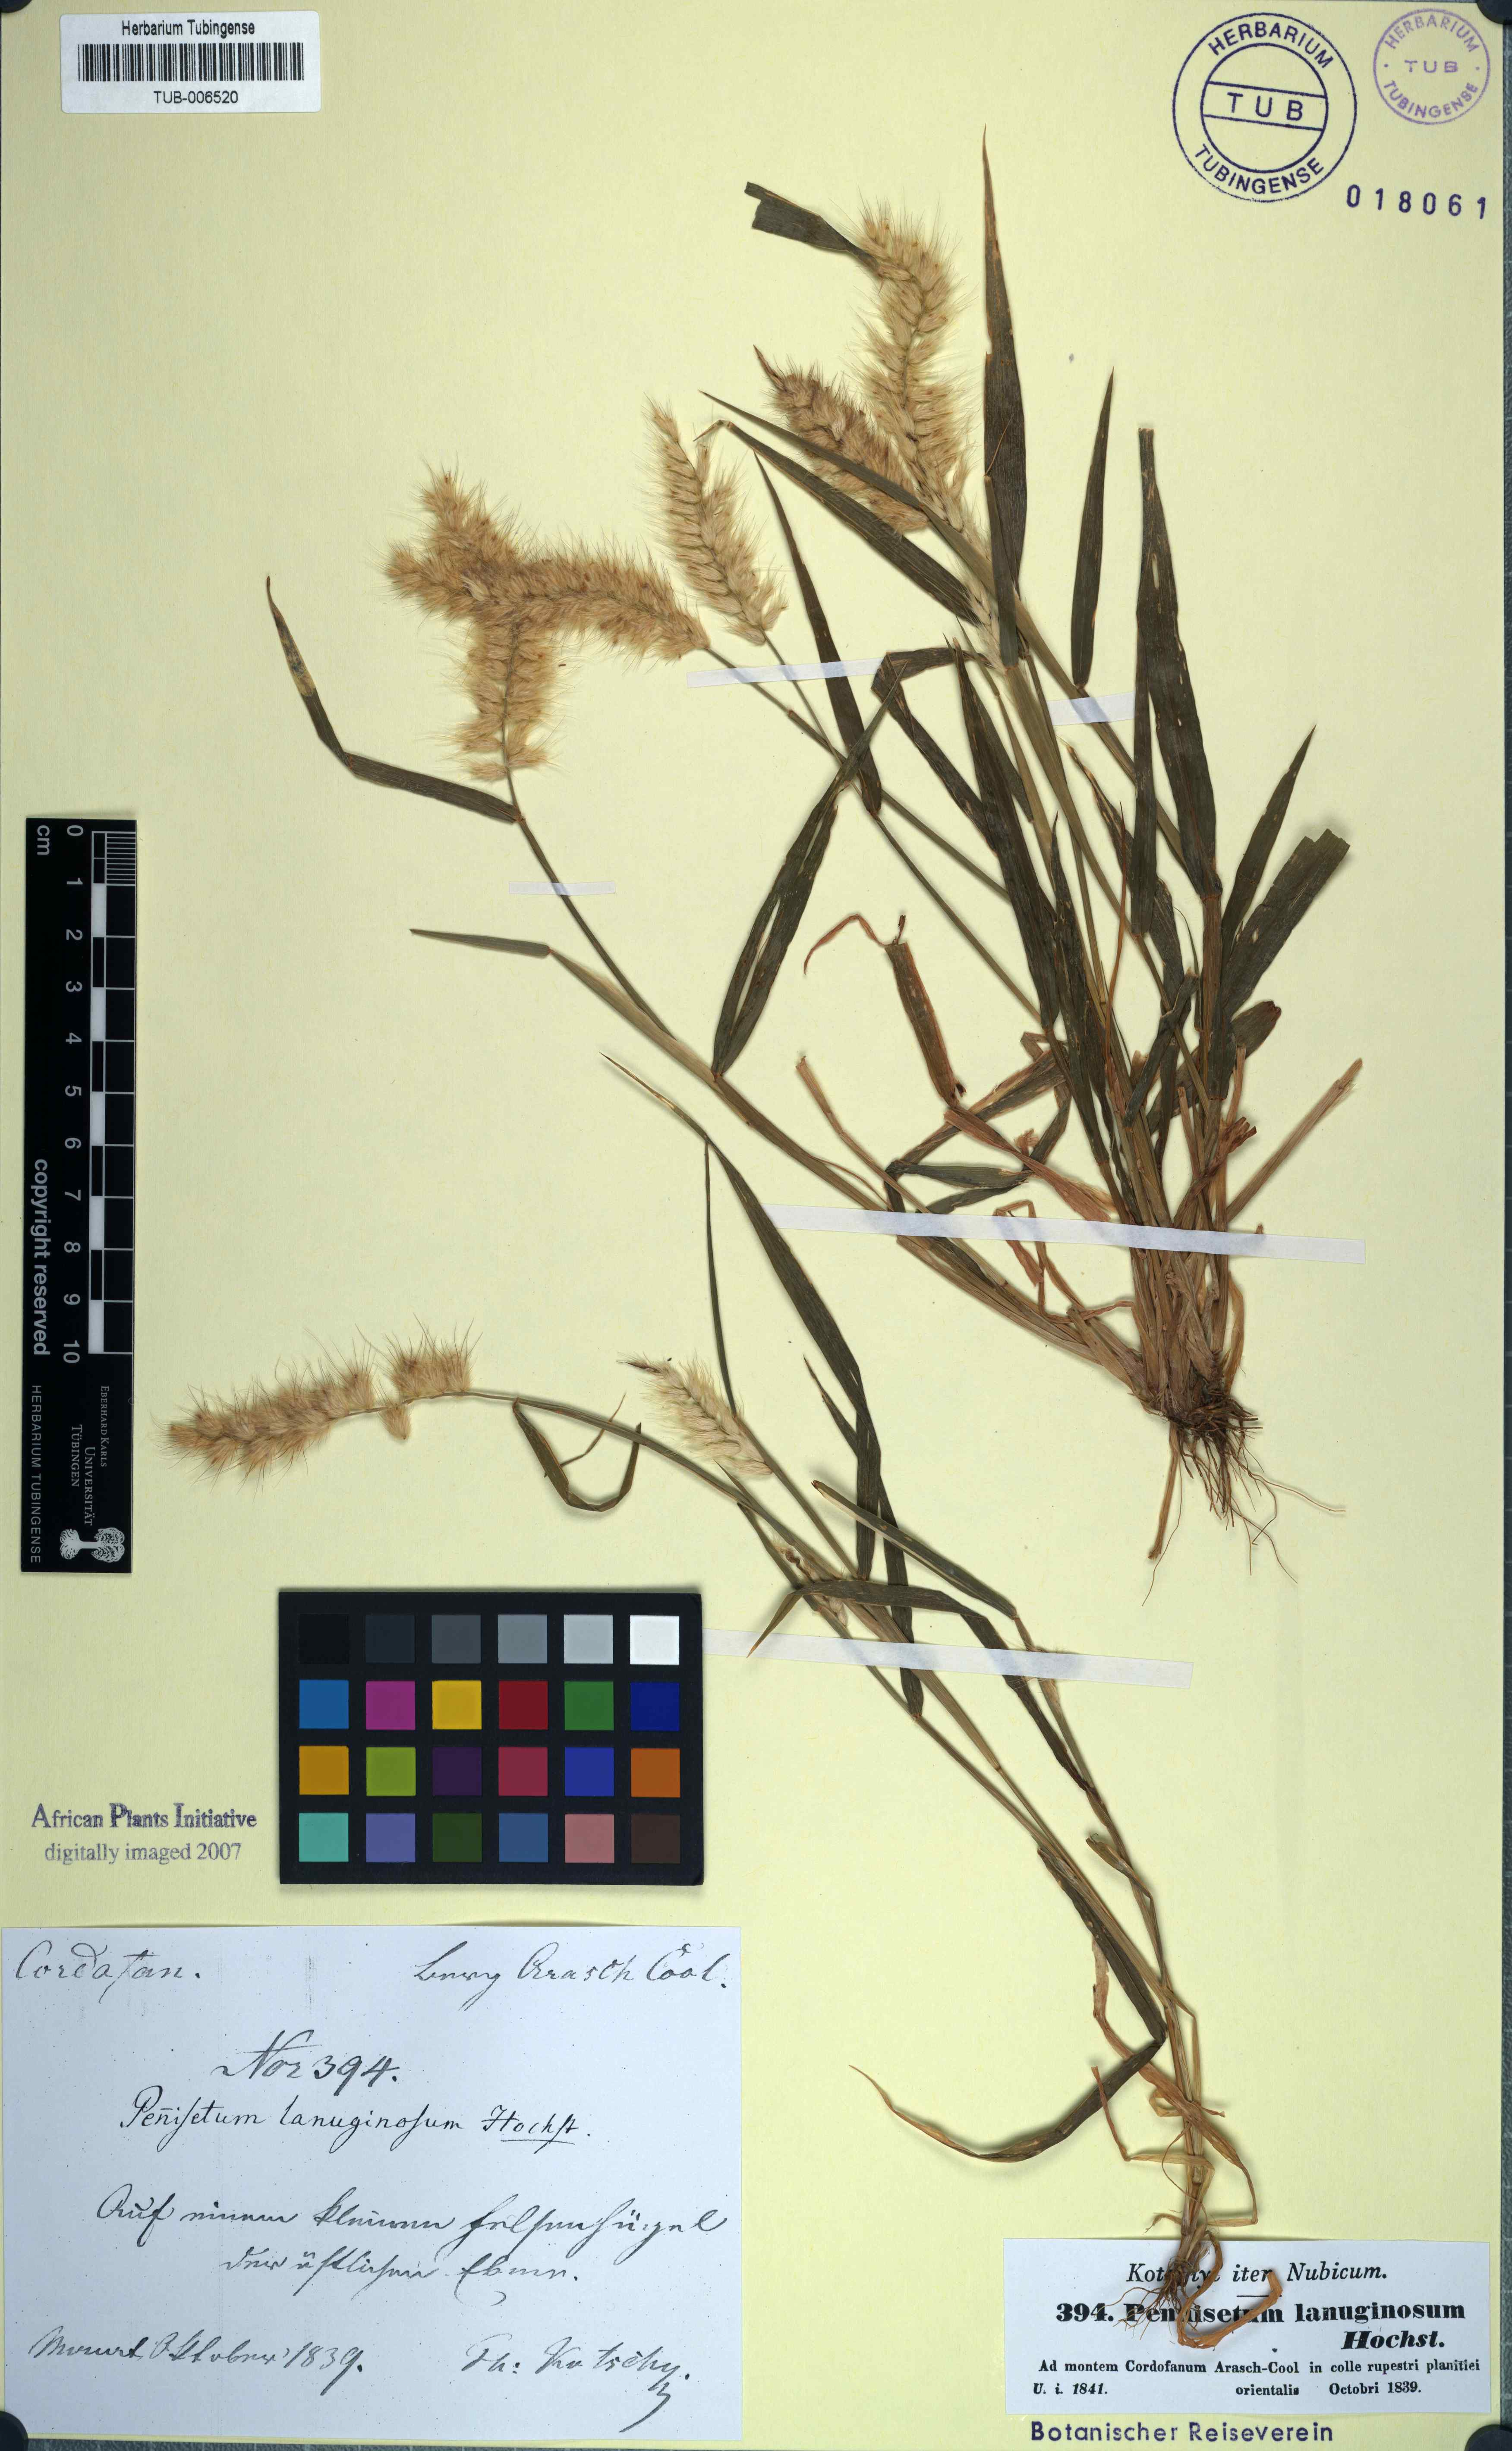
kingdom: Plantae
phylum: Tracheophyta
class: Liliopsida
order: Poales
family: Poaceae
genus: Cenchrus
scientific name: Cenchrus pedicellatus
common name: Hairy fountain grass
